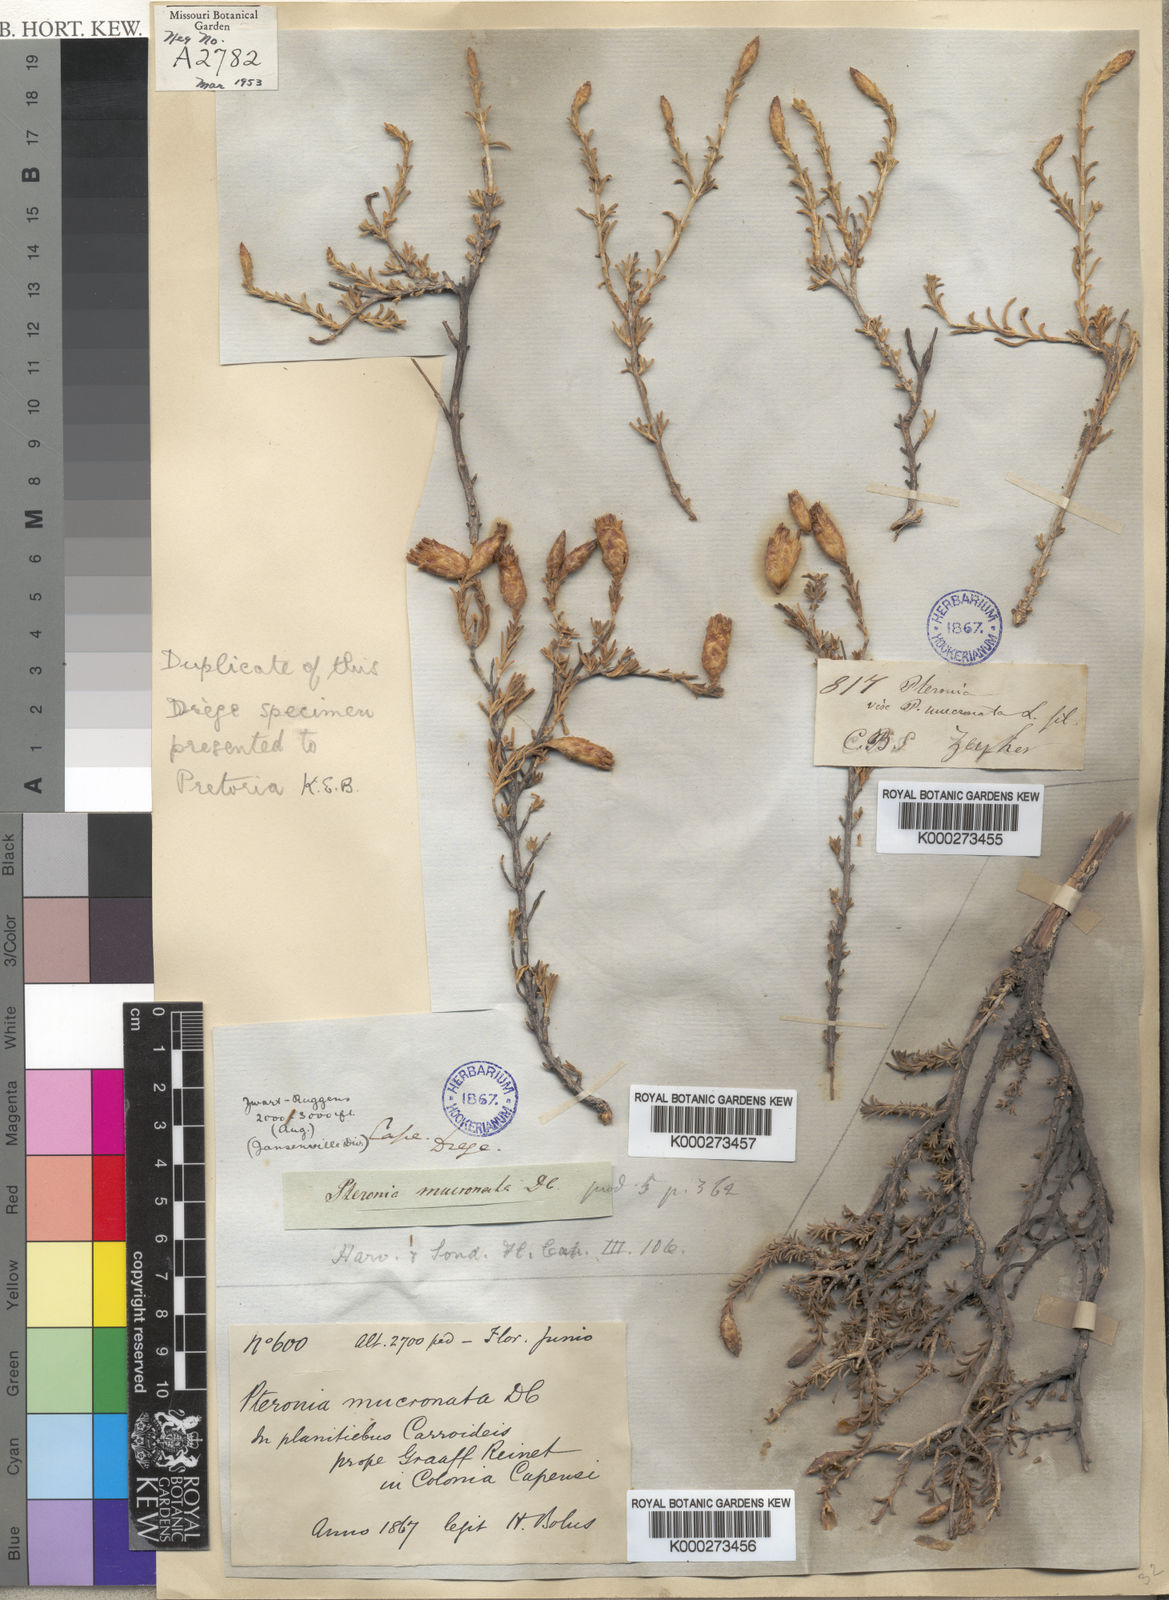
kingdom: Plantae
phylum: Tracheophyta
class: Magnoliopsida
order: Asterales
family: Asteraceae
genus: Pteronia
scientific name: Pteronia mucronata
